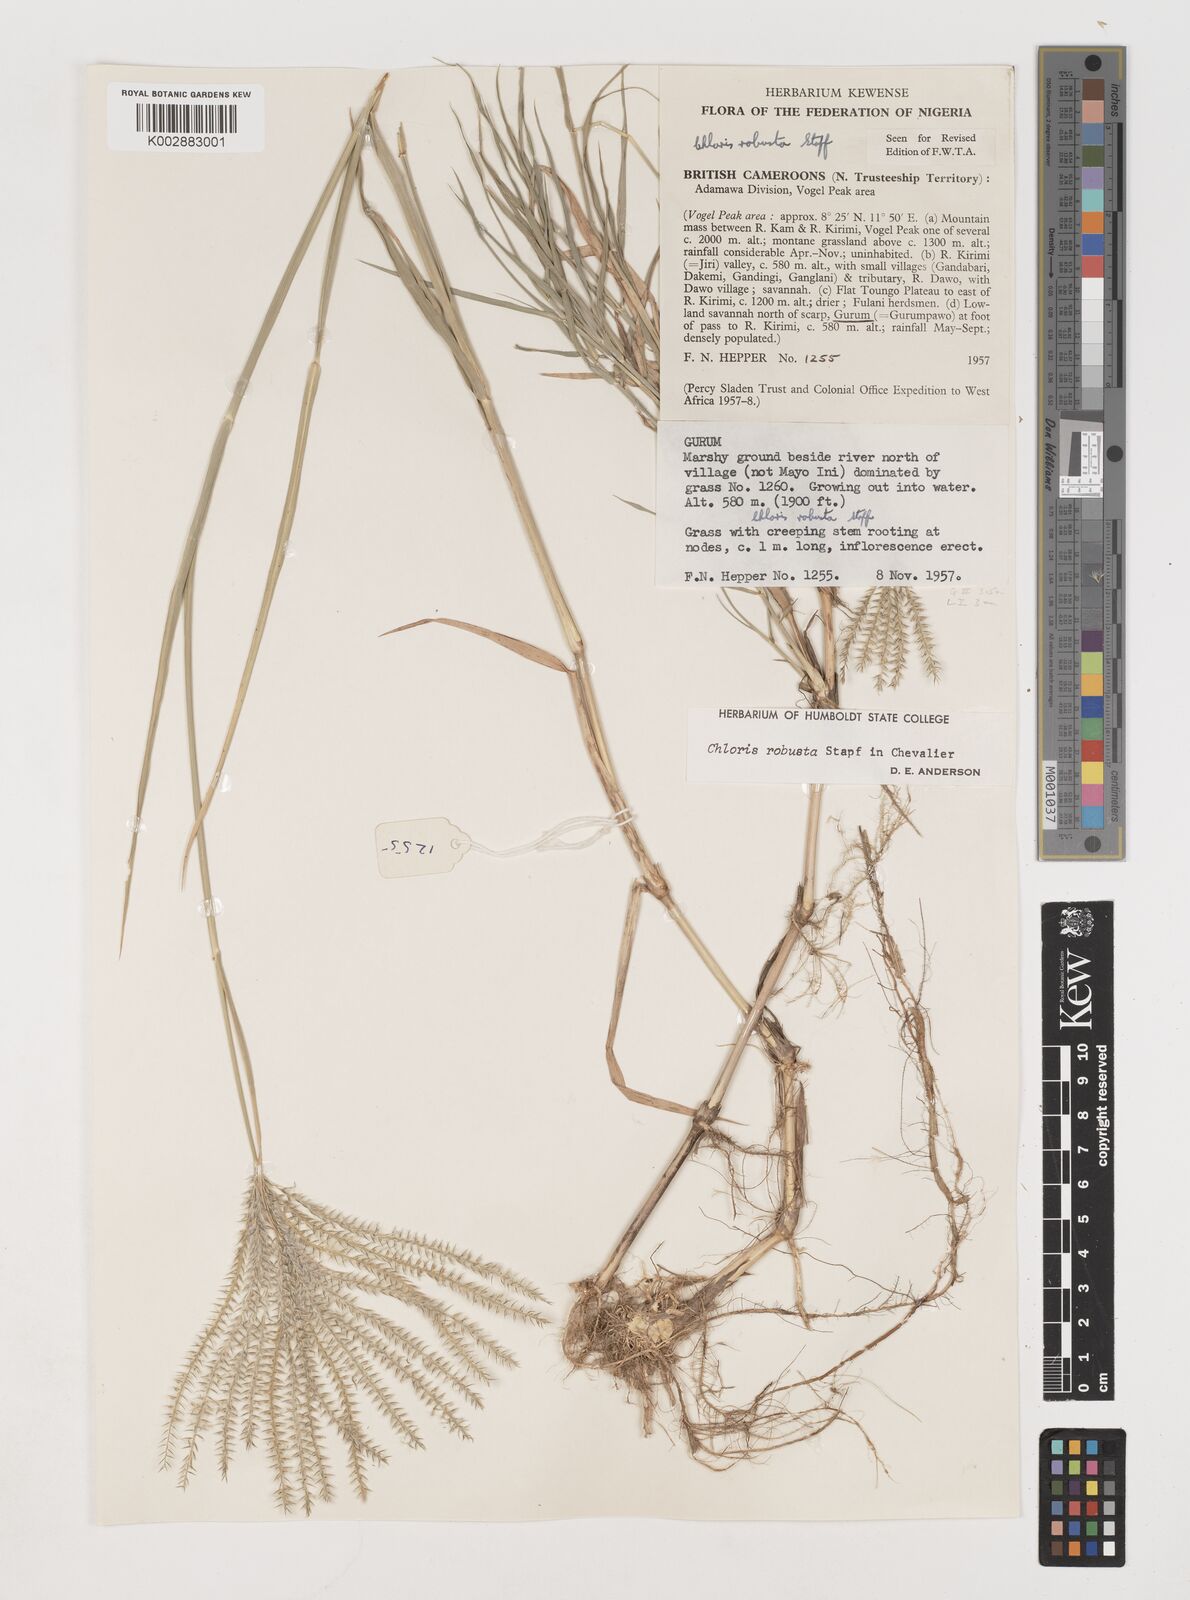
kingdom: Plantae
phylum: Tracheophyta
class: Liliopsida
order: Poales
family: Poaceae
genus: Chloris
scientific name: Chloris robusta
